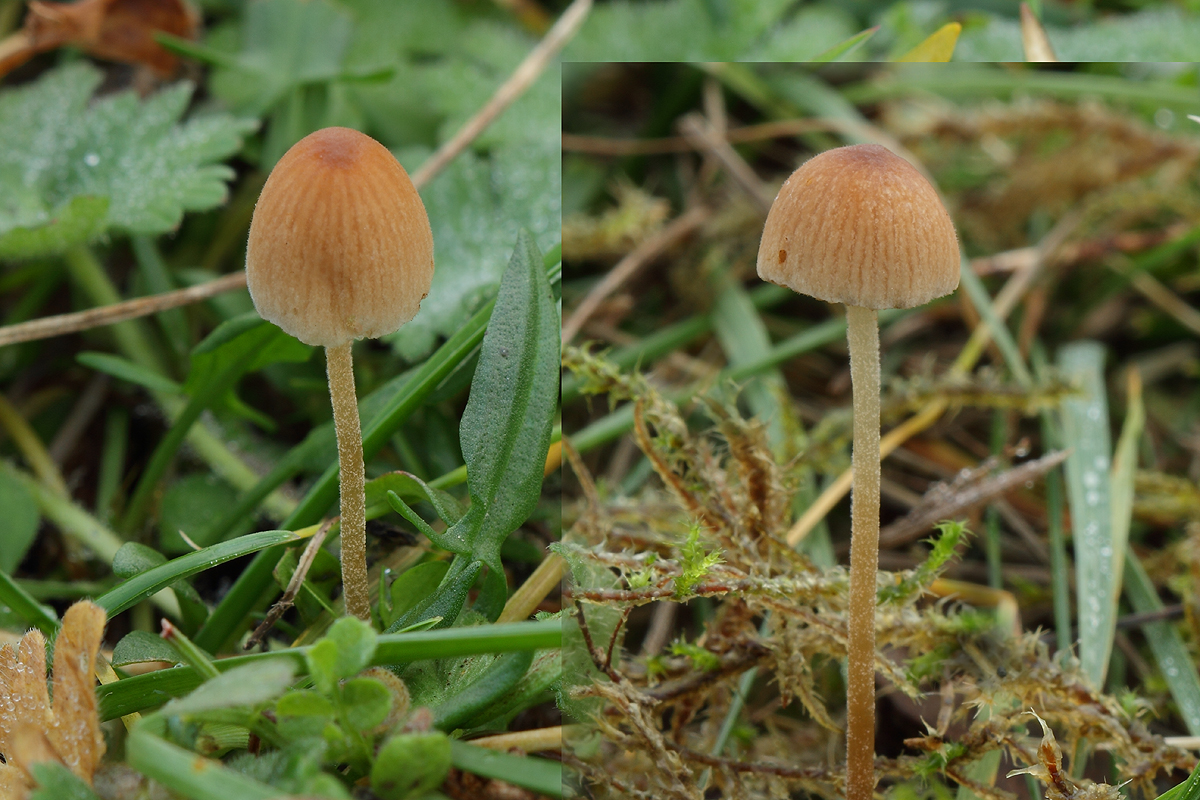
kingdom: Fungi
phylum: Basidiomycota
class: Agaricomycetes
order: Agaricales
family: Bolbitiaceae
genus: Conocybe
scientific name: Conocybe brunneidisca
